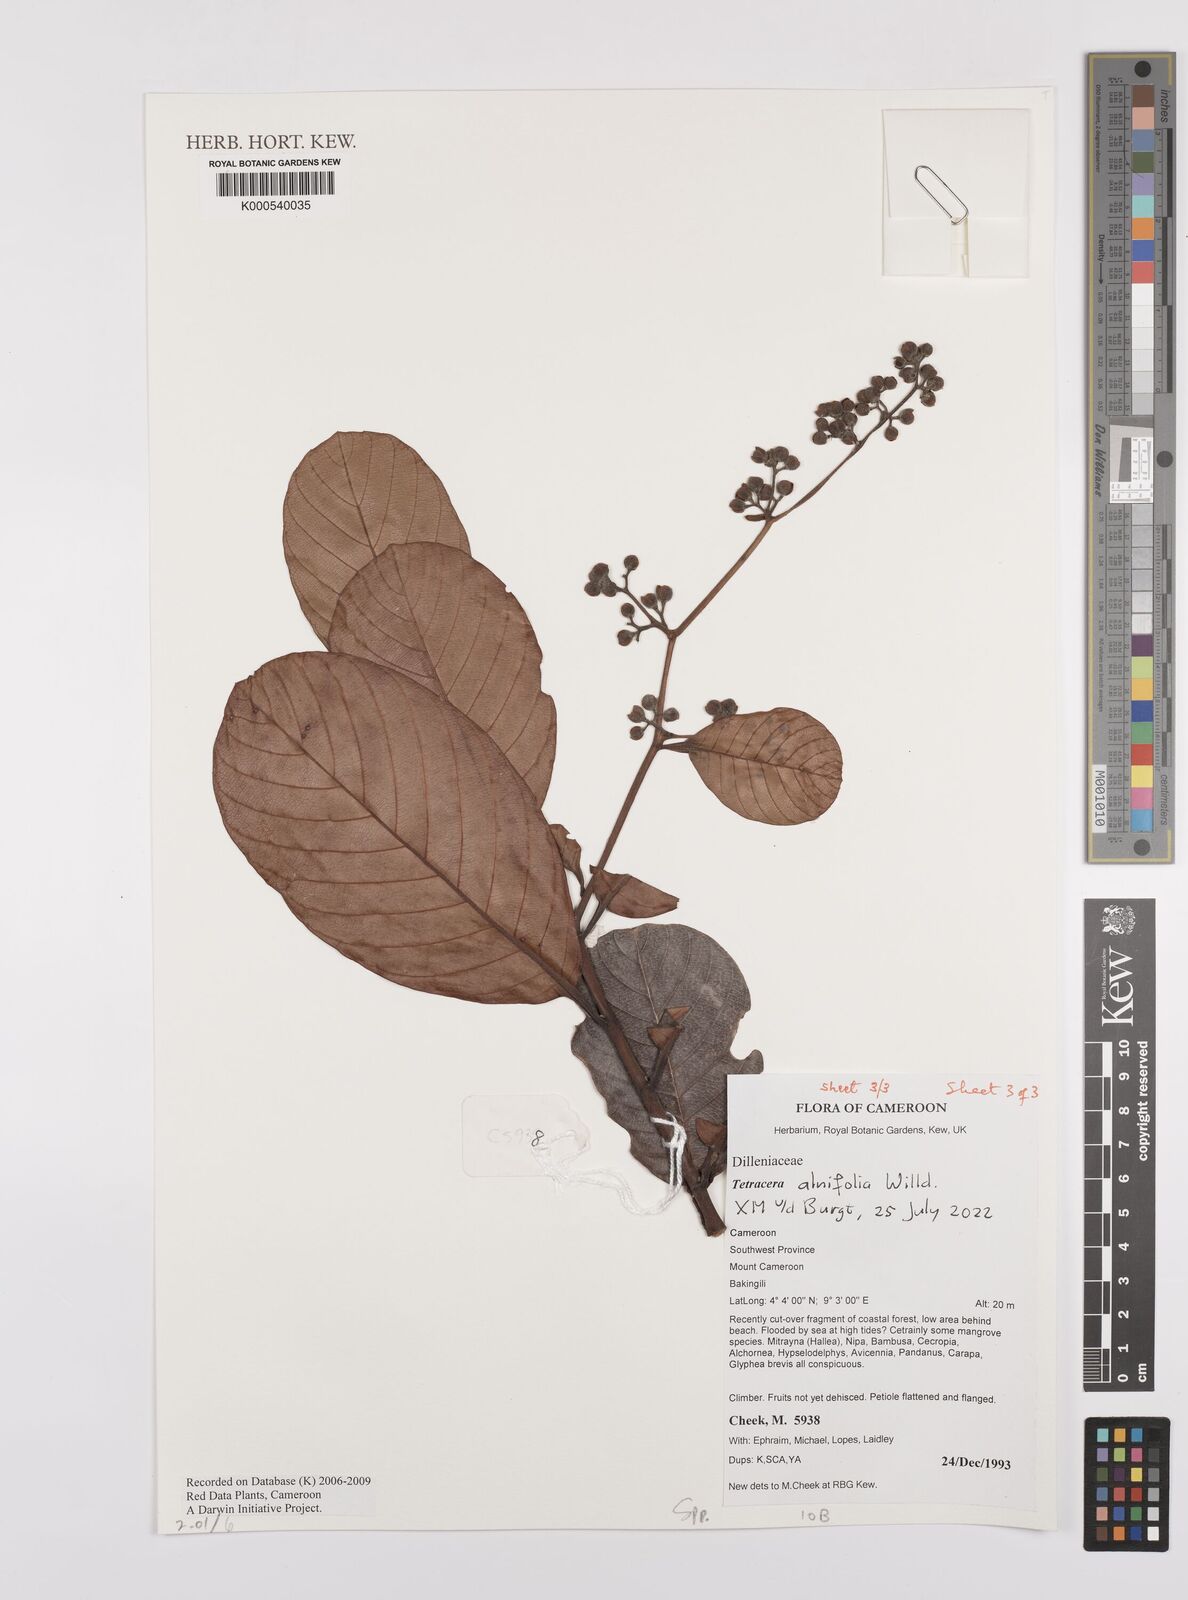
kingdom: Plantae
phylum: Tracheophyta
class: Magnoliopsida
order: Dilleniales
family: Dilleniaceae
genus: Tetracera
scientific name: Tetracera
